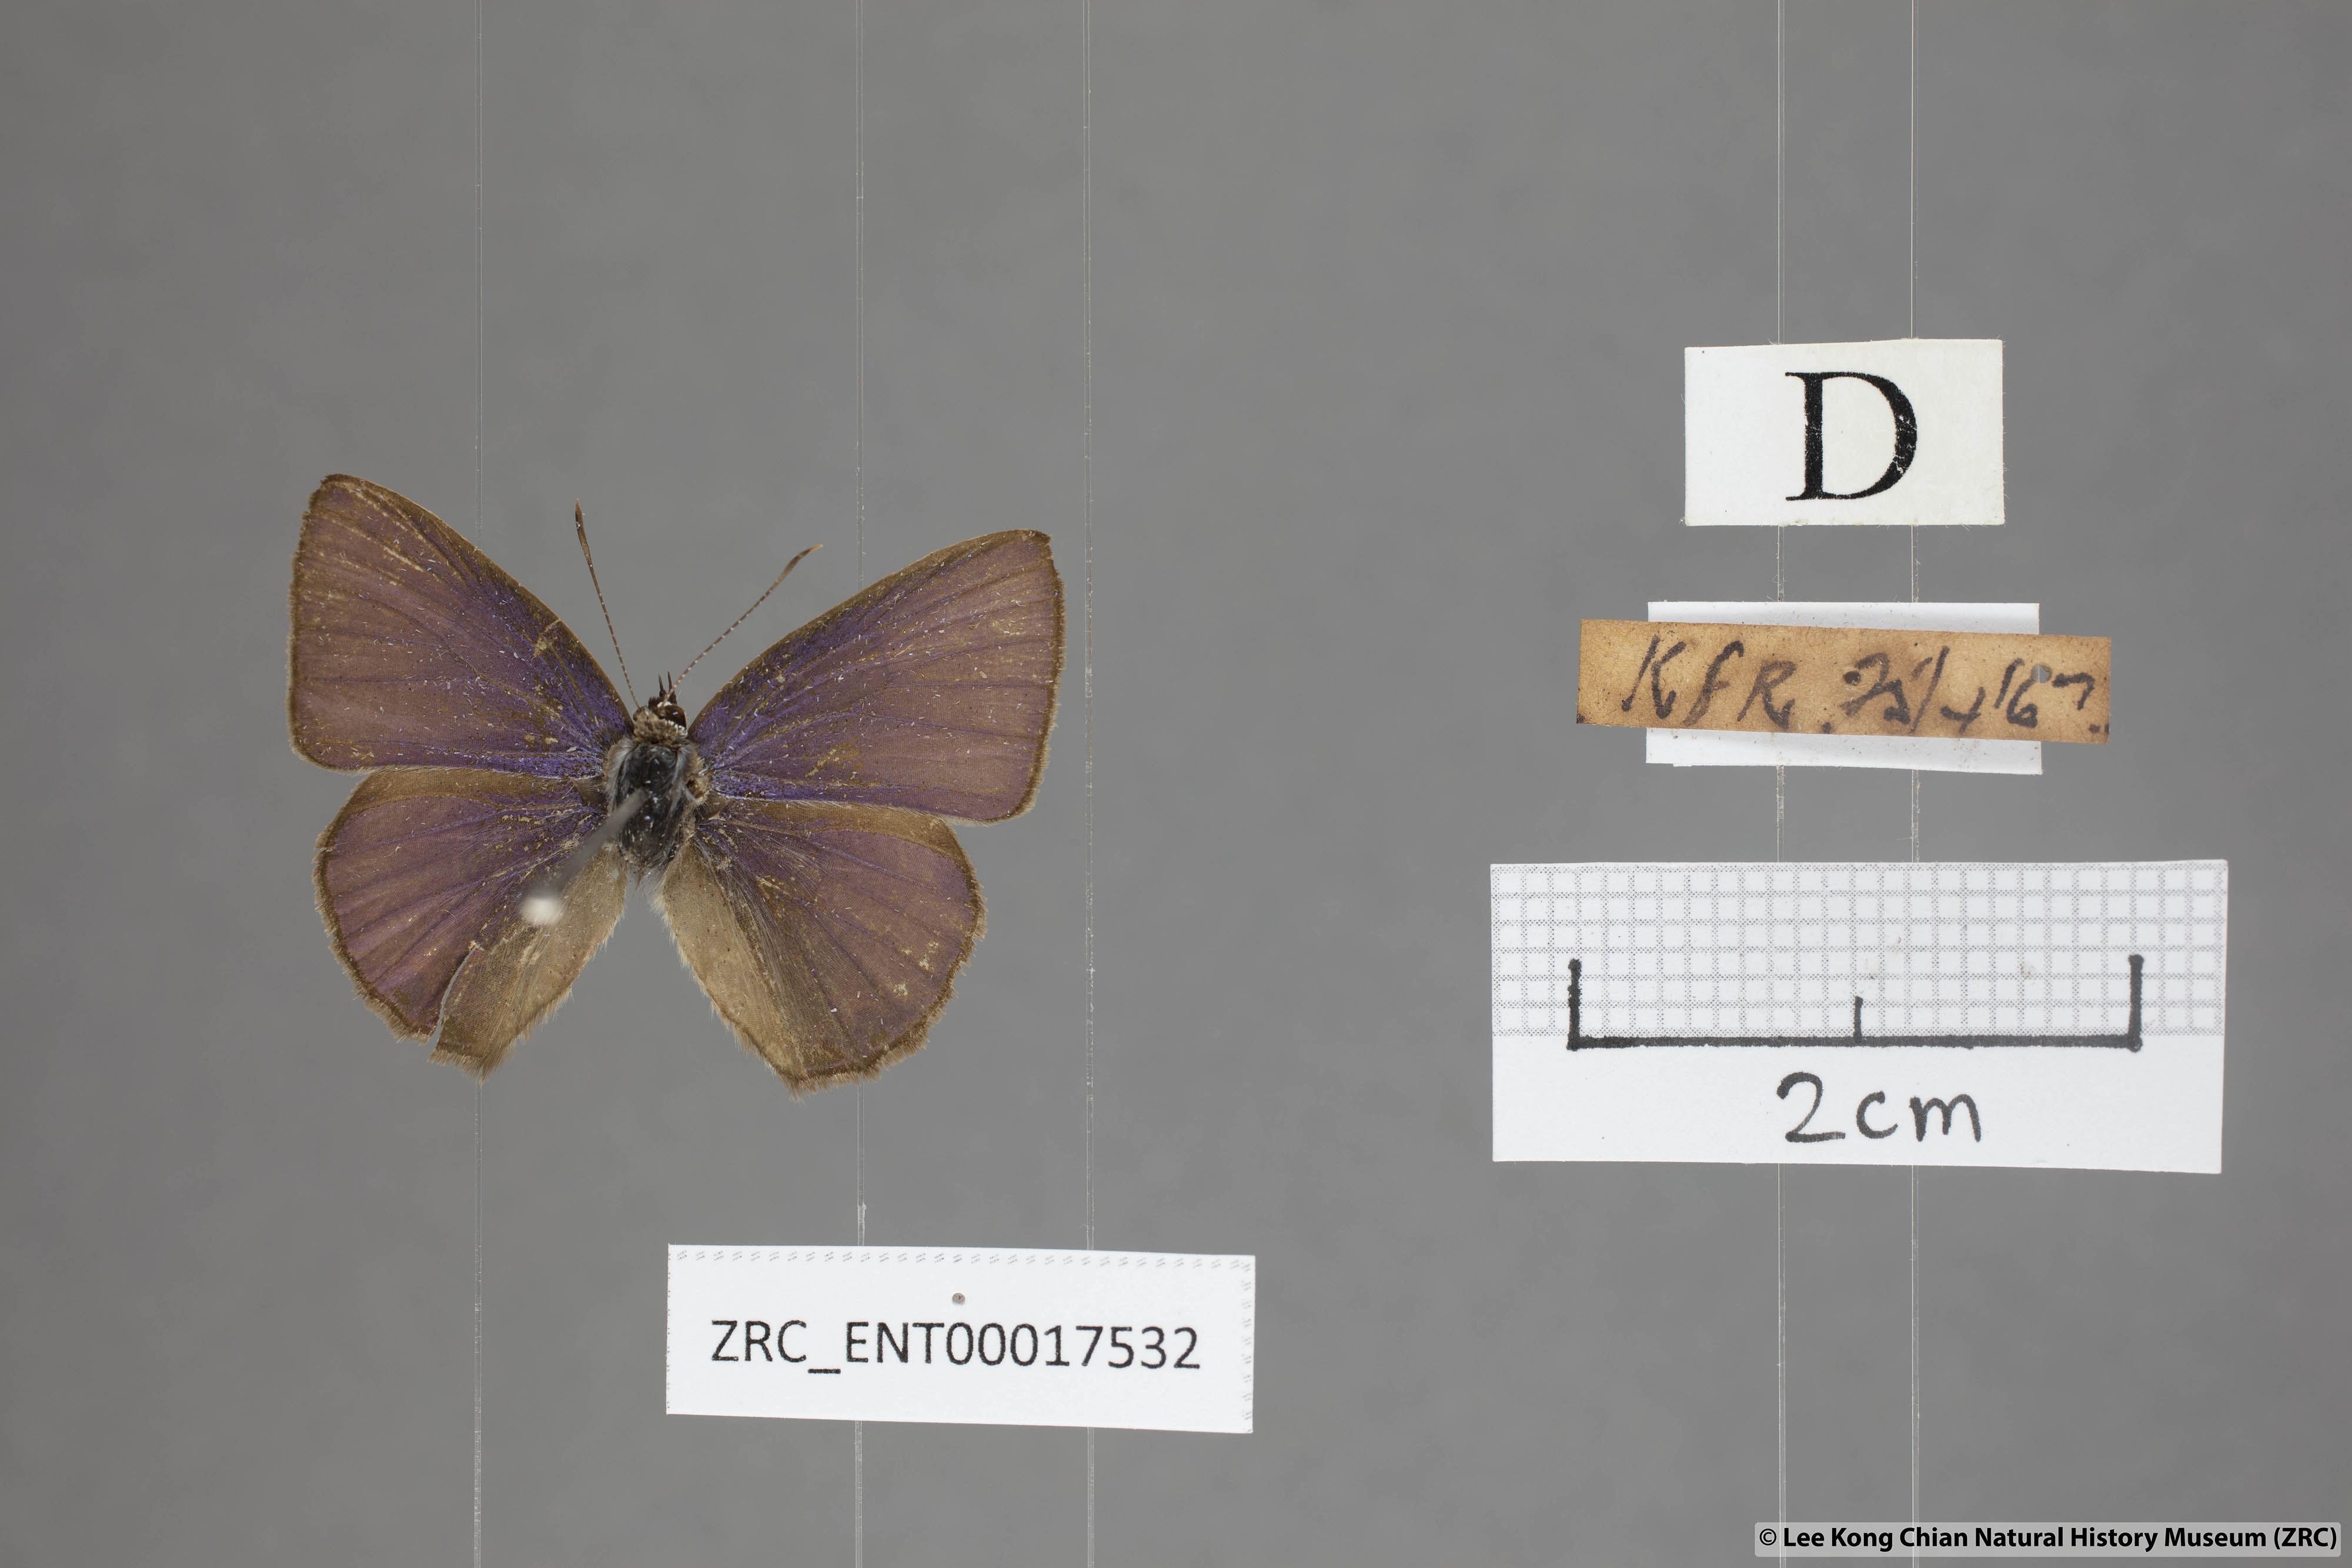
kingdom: Animalia
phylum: Arthropoda
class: Insecta
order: Lepidoptera
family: Lycaenidae
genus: Anthene
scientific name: Anthene emolus
